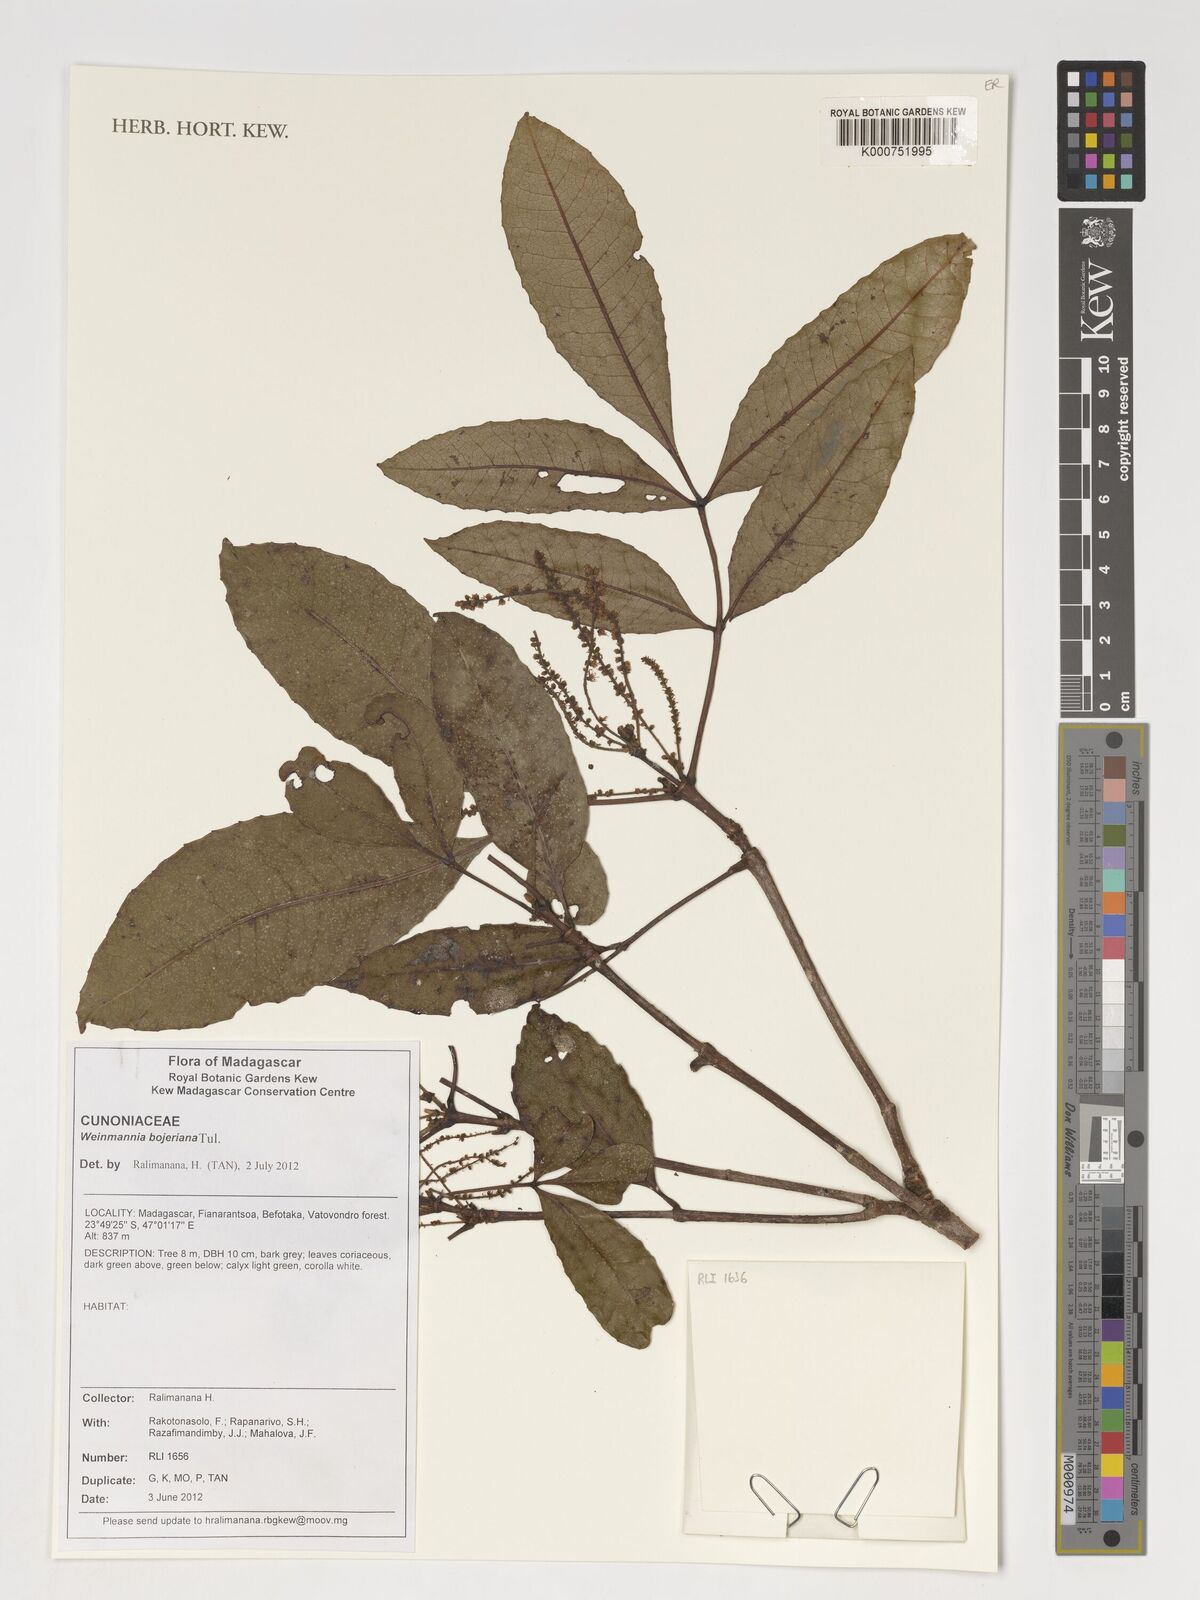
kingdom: Plantae
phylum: Tracheophyta
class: Magnoliopsida
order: Oxalidales
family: Cunoniaceae
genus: Pterophylla
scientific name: Pterophylla bojeriana
